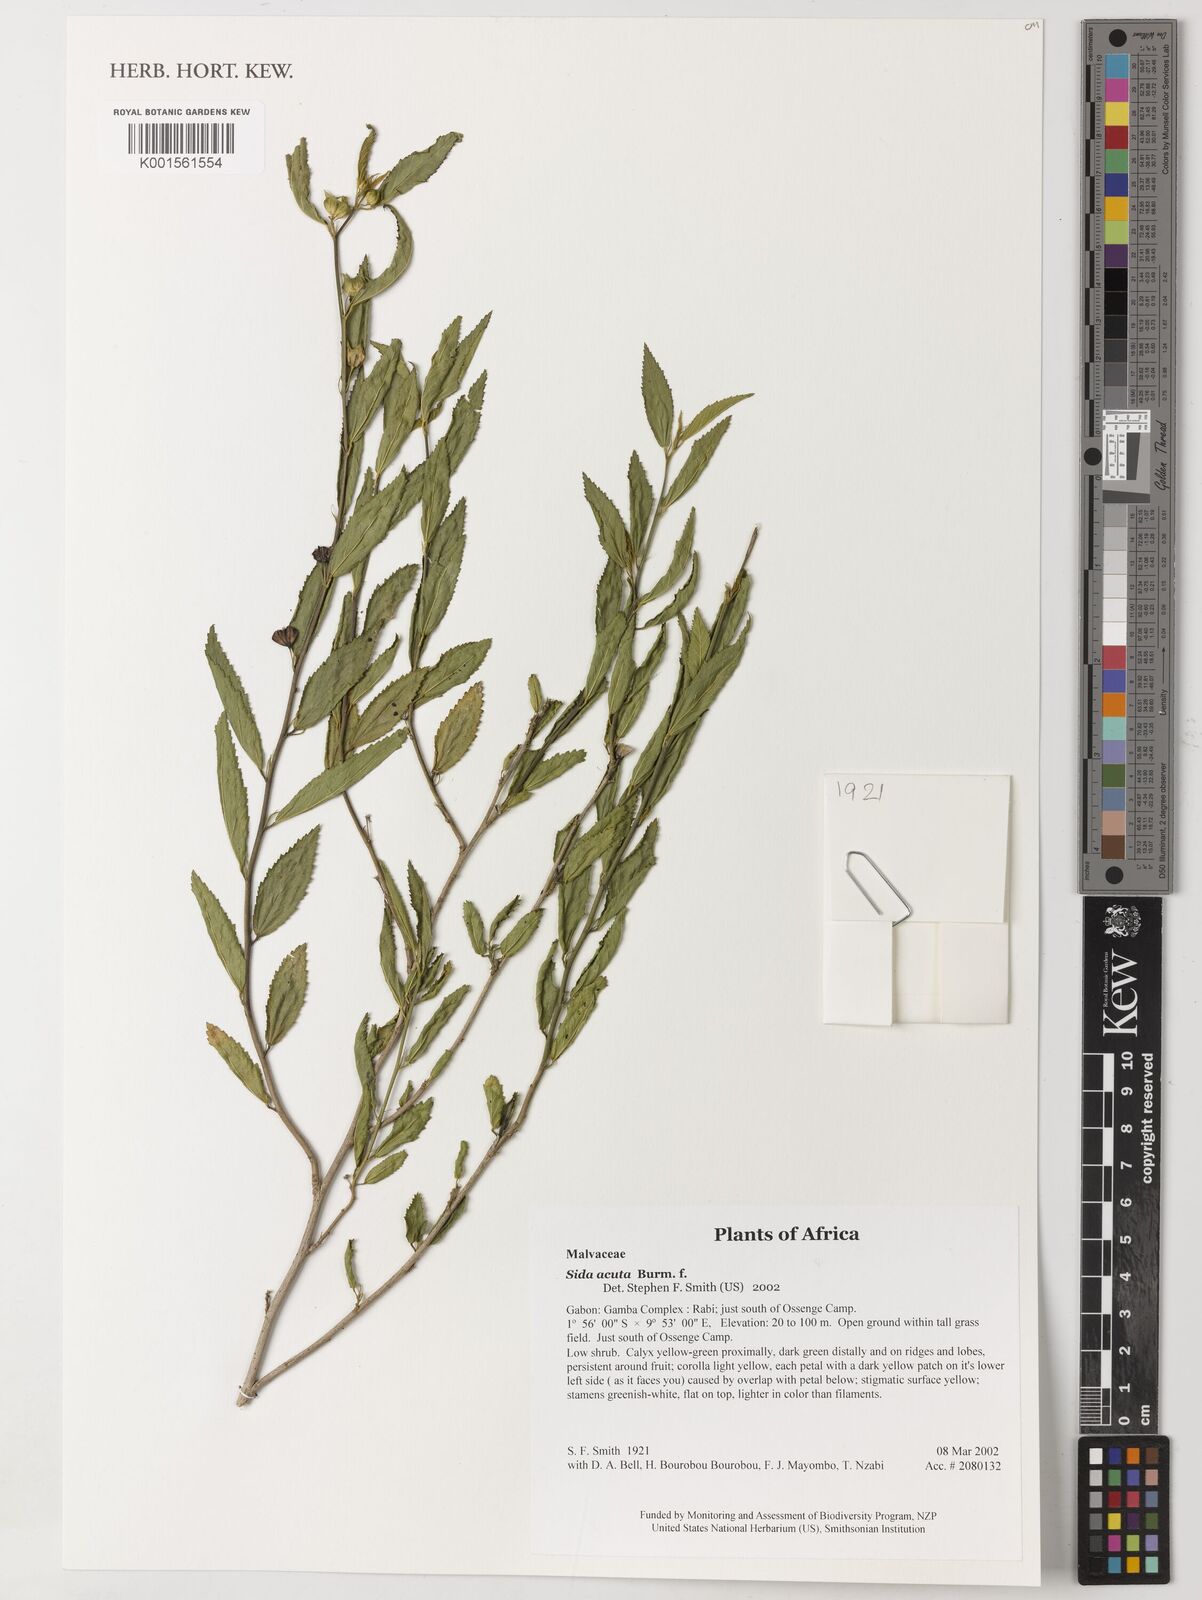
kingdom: Plantae
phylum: Tracheophyta
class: Magnoliopsida
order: Malvales
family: Malvaceae
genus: Sida
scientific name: Sida acuta
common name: Common wireweed
